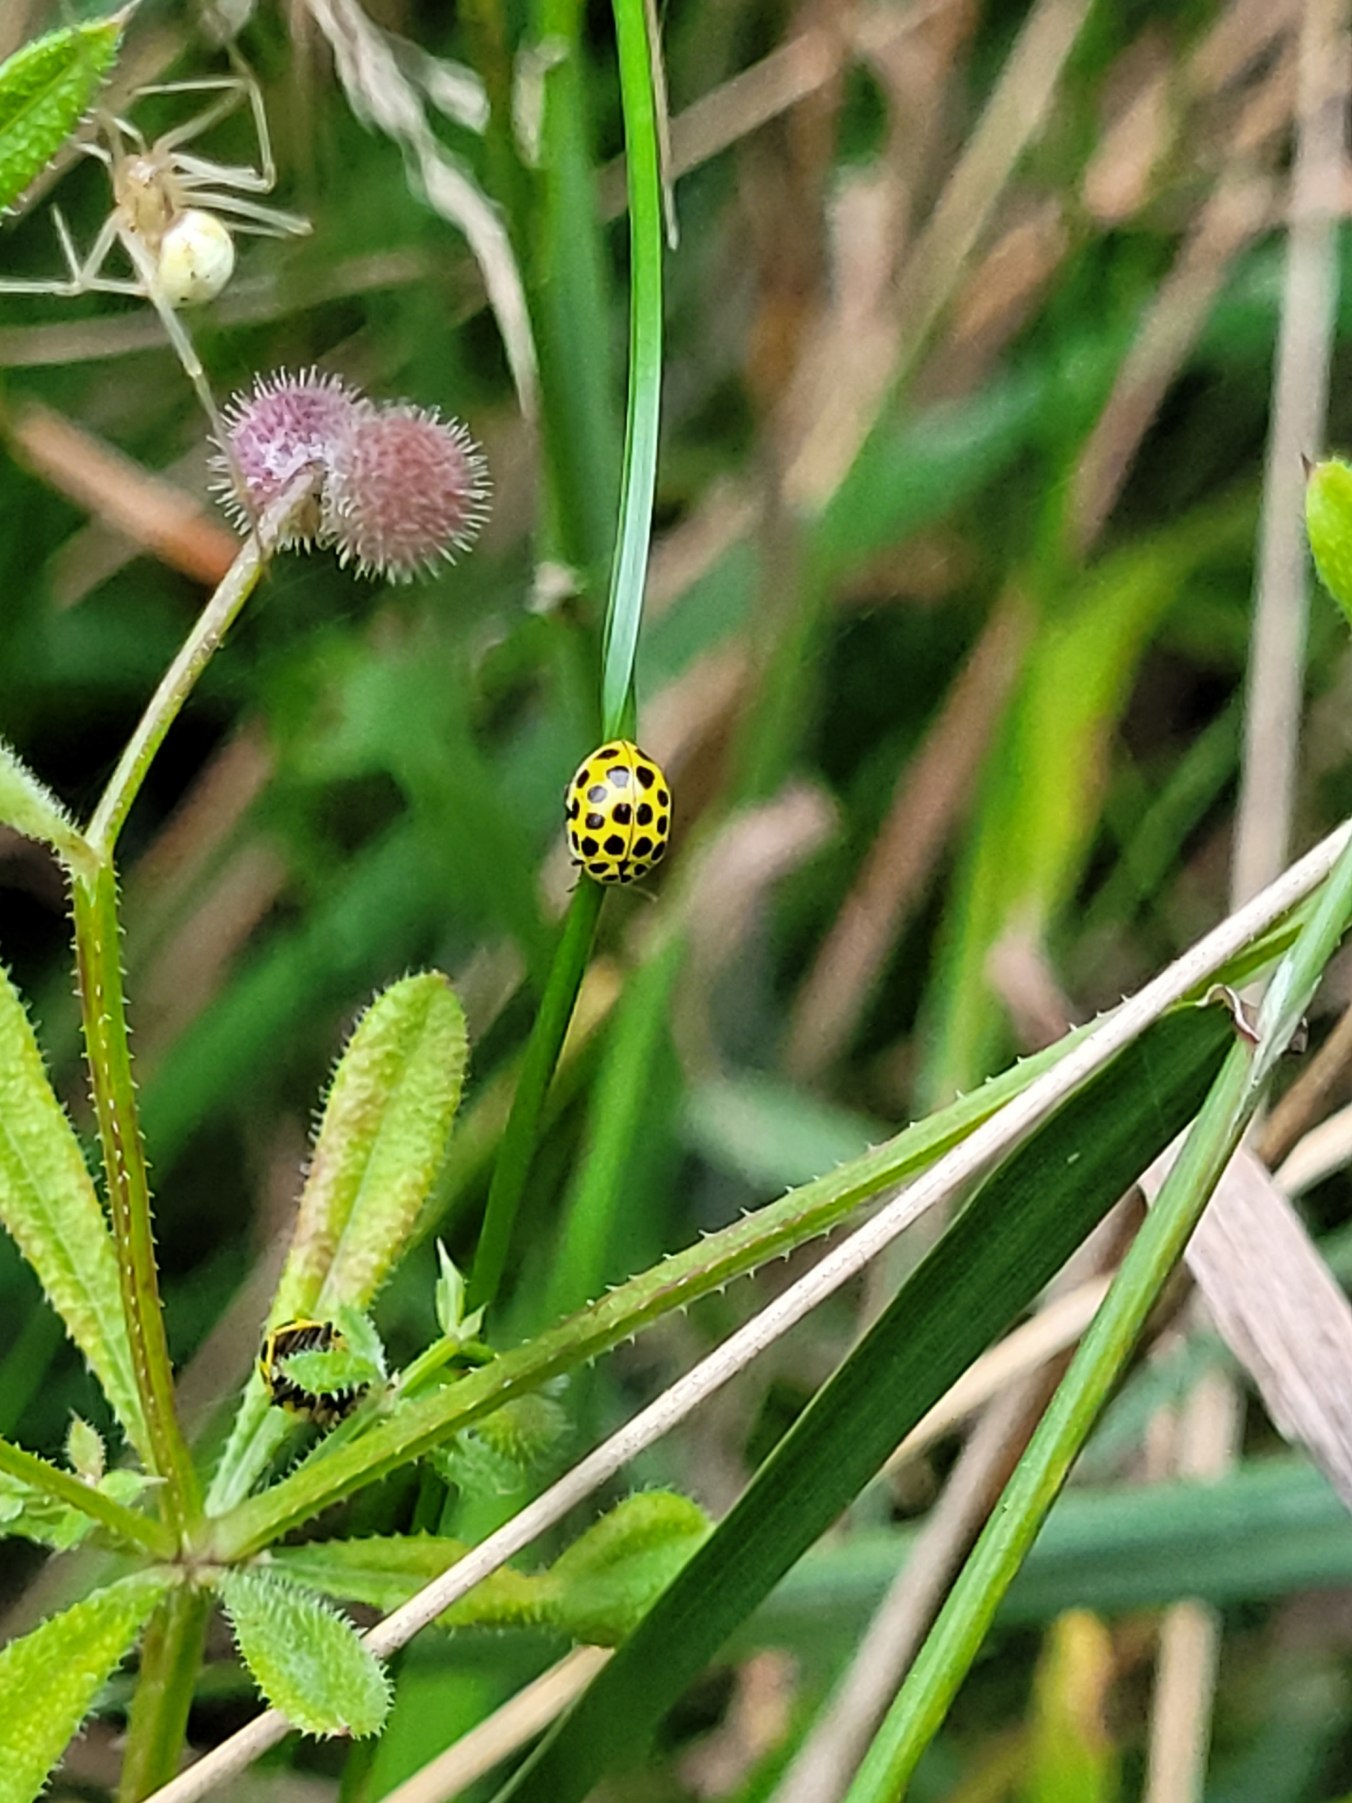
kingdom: Animalia
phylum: Arthropoda
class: Insecta
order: Coleoptera
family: Coccinellidae
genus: Psyllobora
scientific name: Psyllobora vigintiduopunctata
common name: Toogtyveplettet mariehøne
